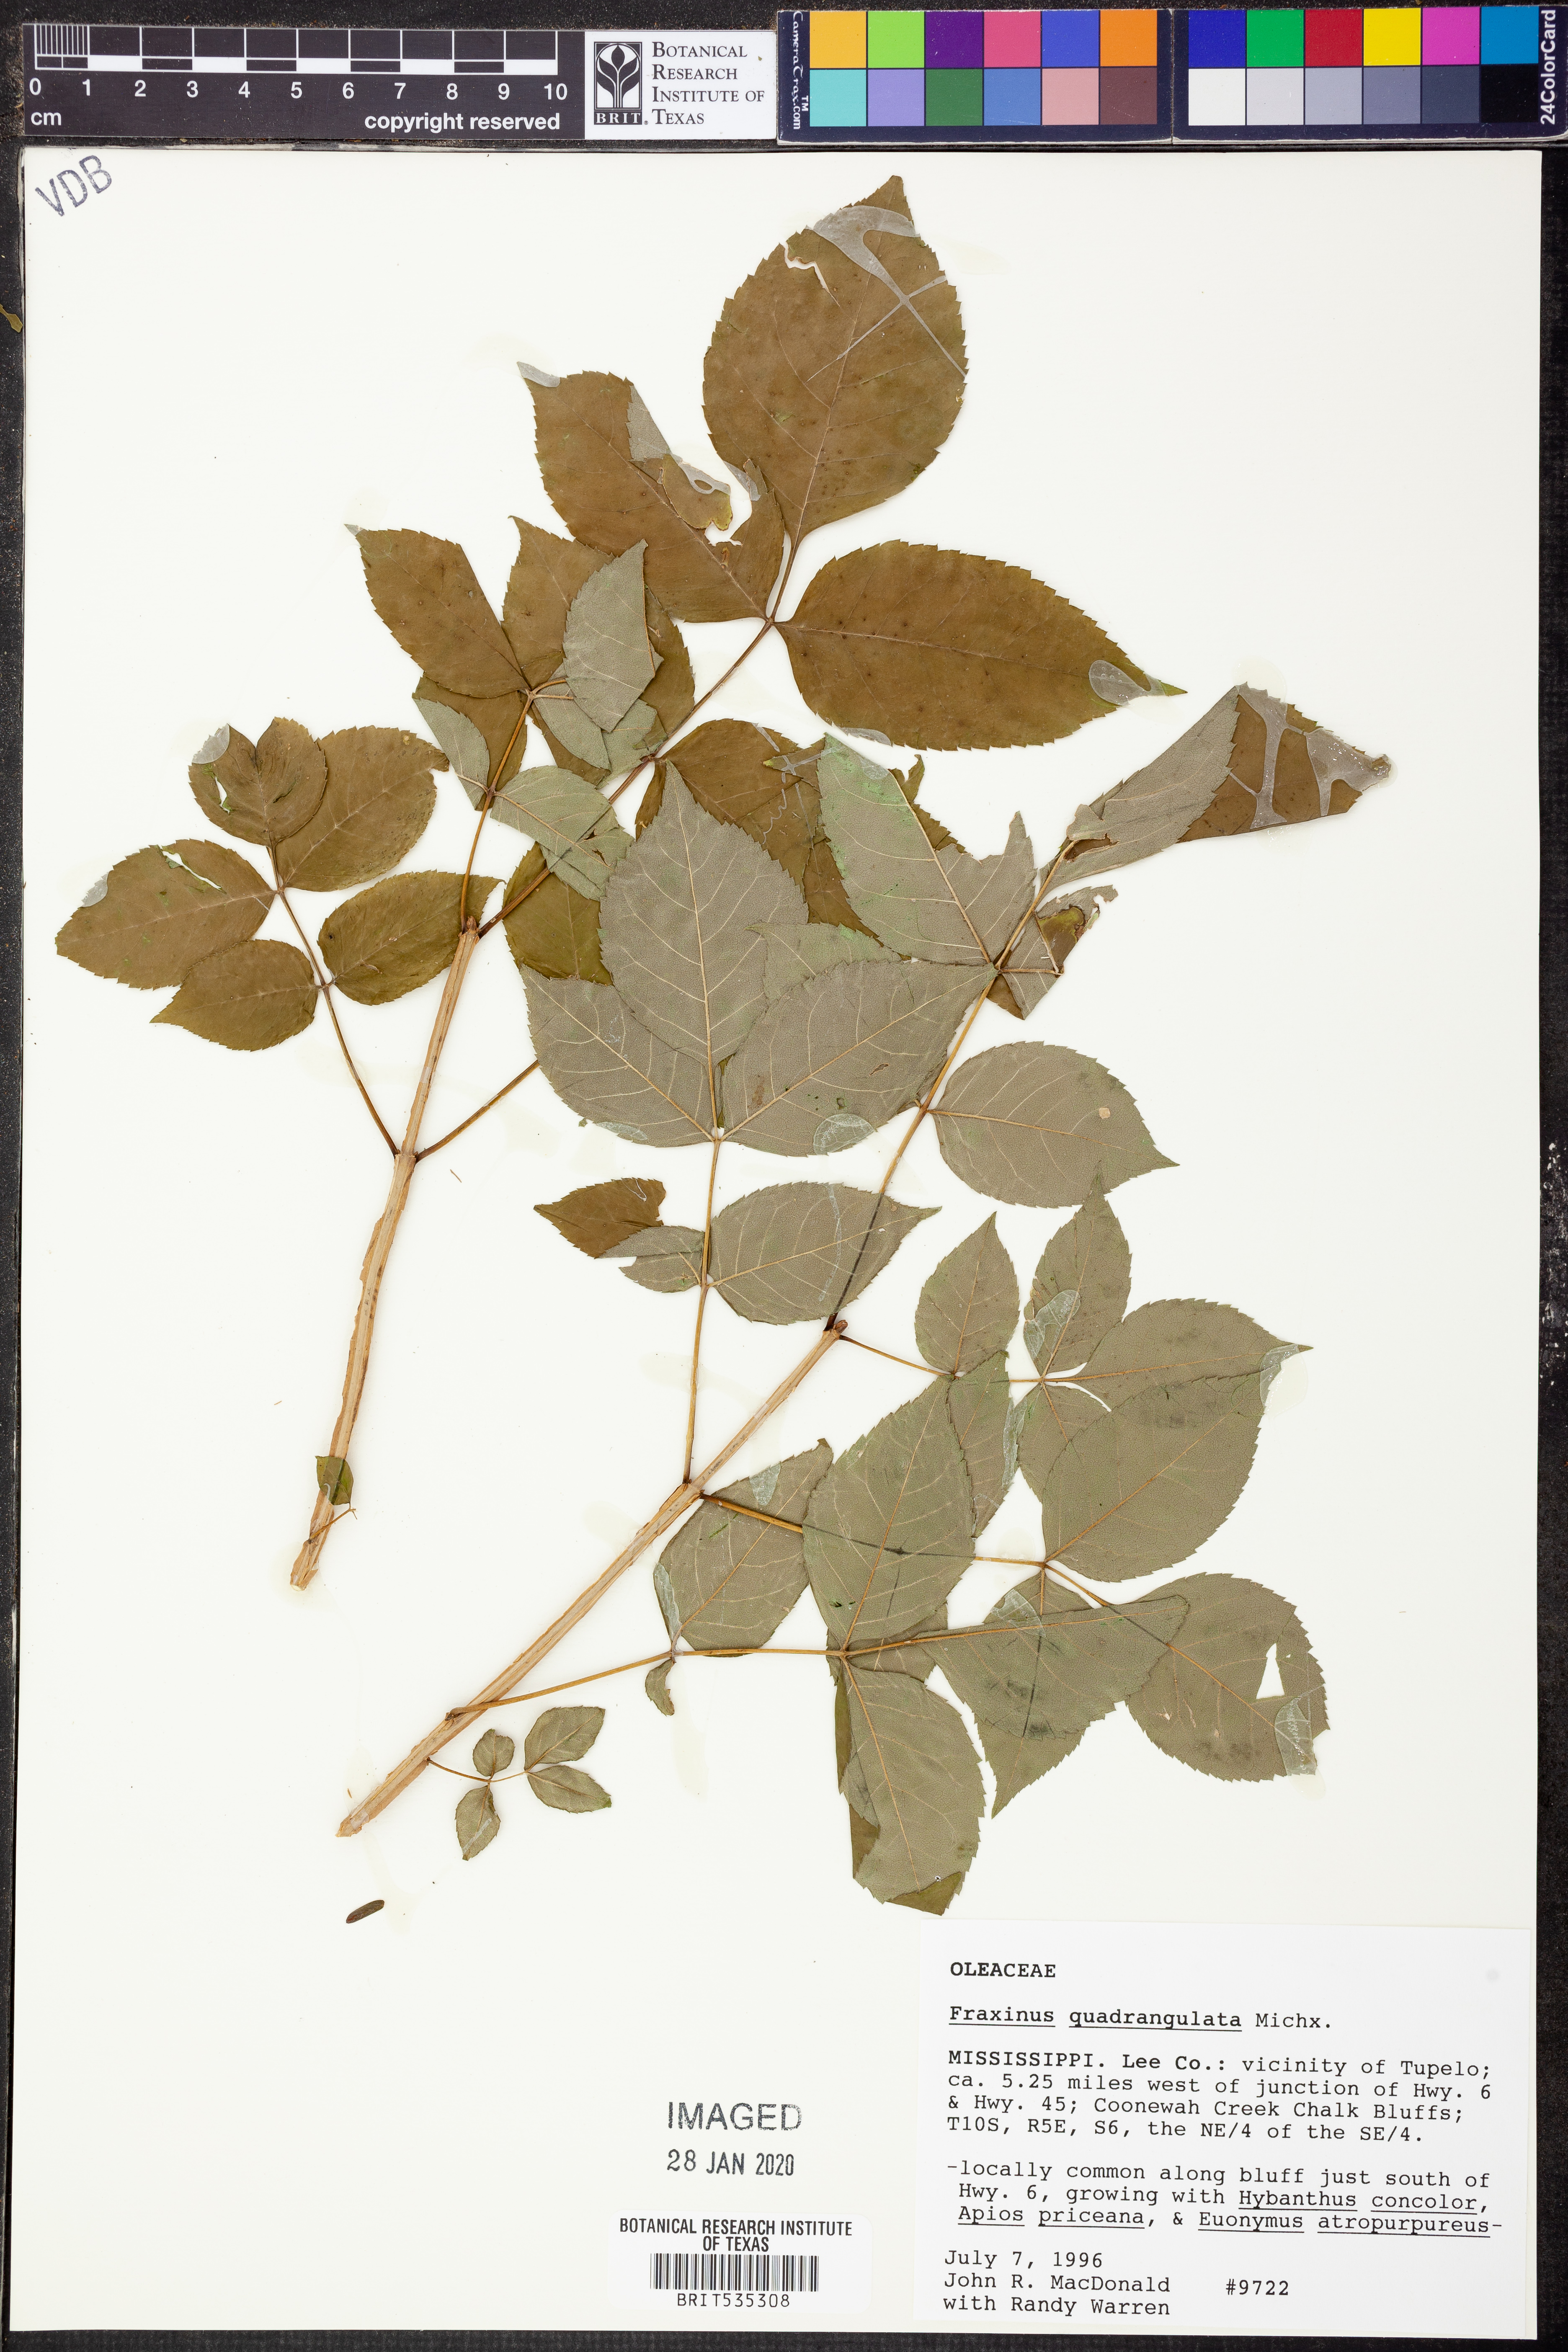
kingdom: Plantae
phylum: Tracheophyta
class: Magnoliopsida
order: Lamiales
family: Oleaceae
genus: Fraxinus
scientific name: Fraxinus quadrangulata
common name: Blue ash
